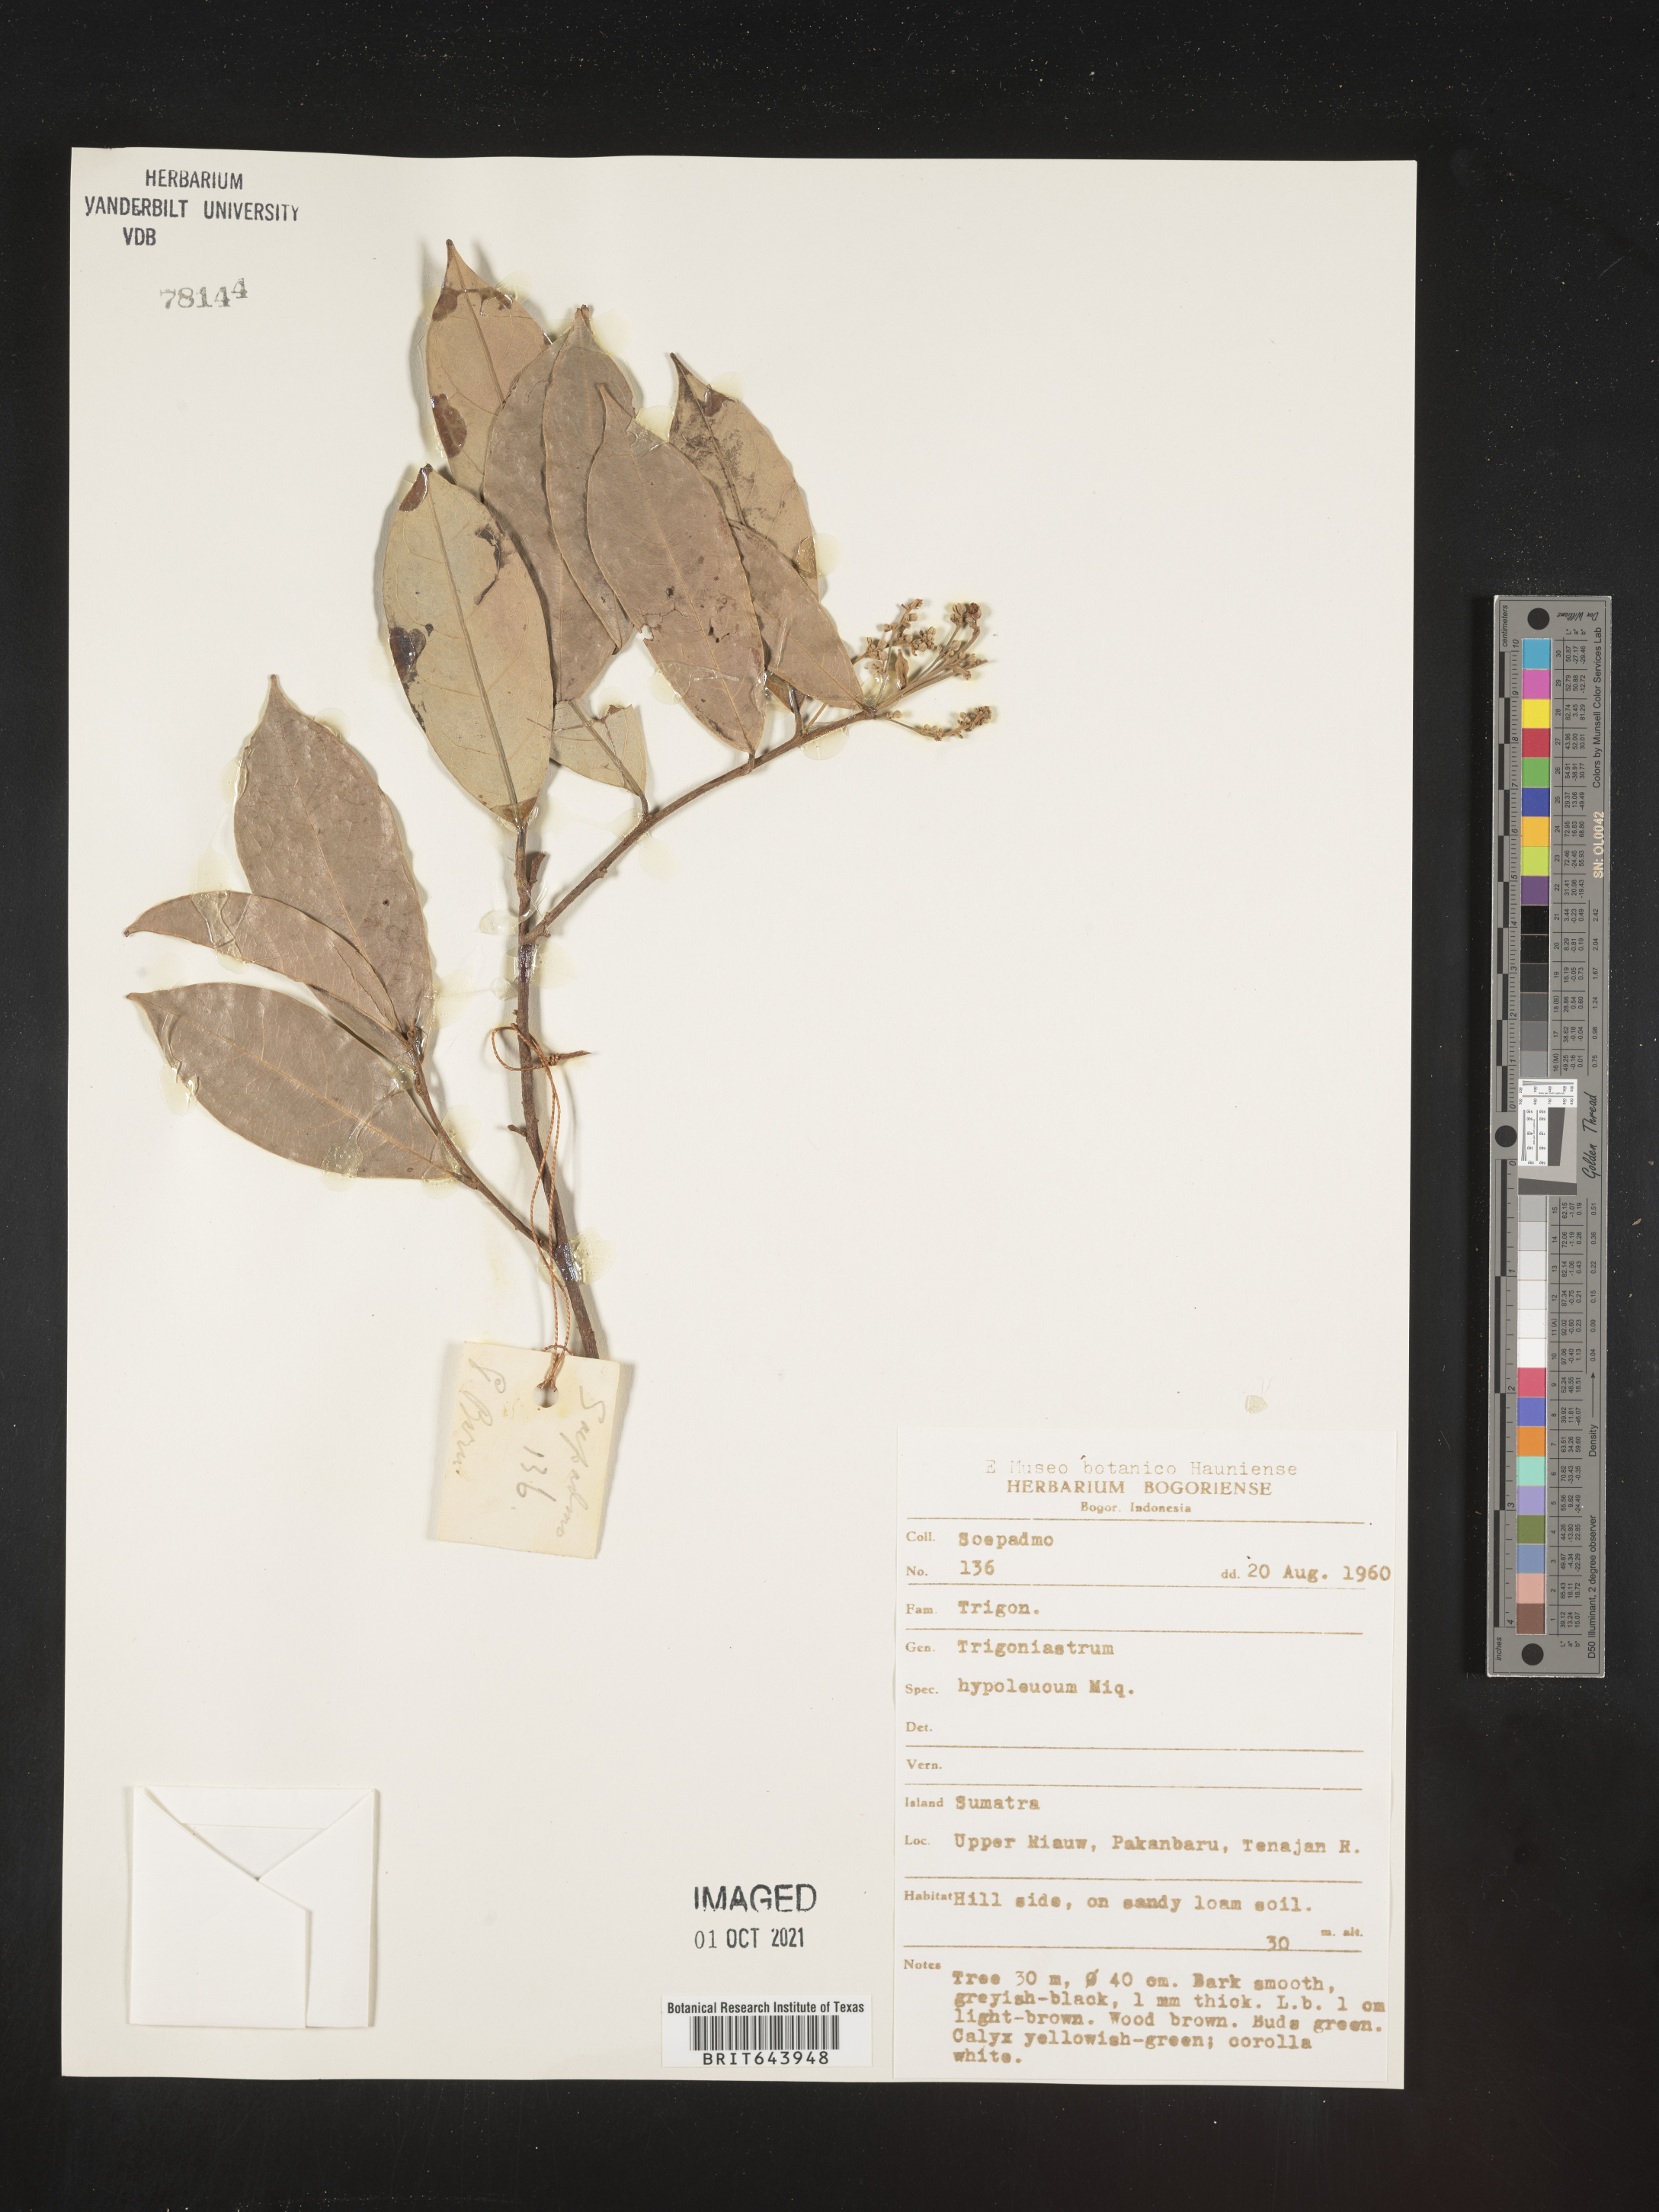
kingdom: Plantae
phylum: Tracheophyta
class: Magnoliopsida
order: Malpighiales
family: Trigoniaceae
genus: Trigoniastrum
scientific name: Trigoniastrum hypoleucum
